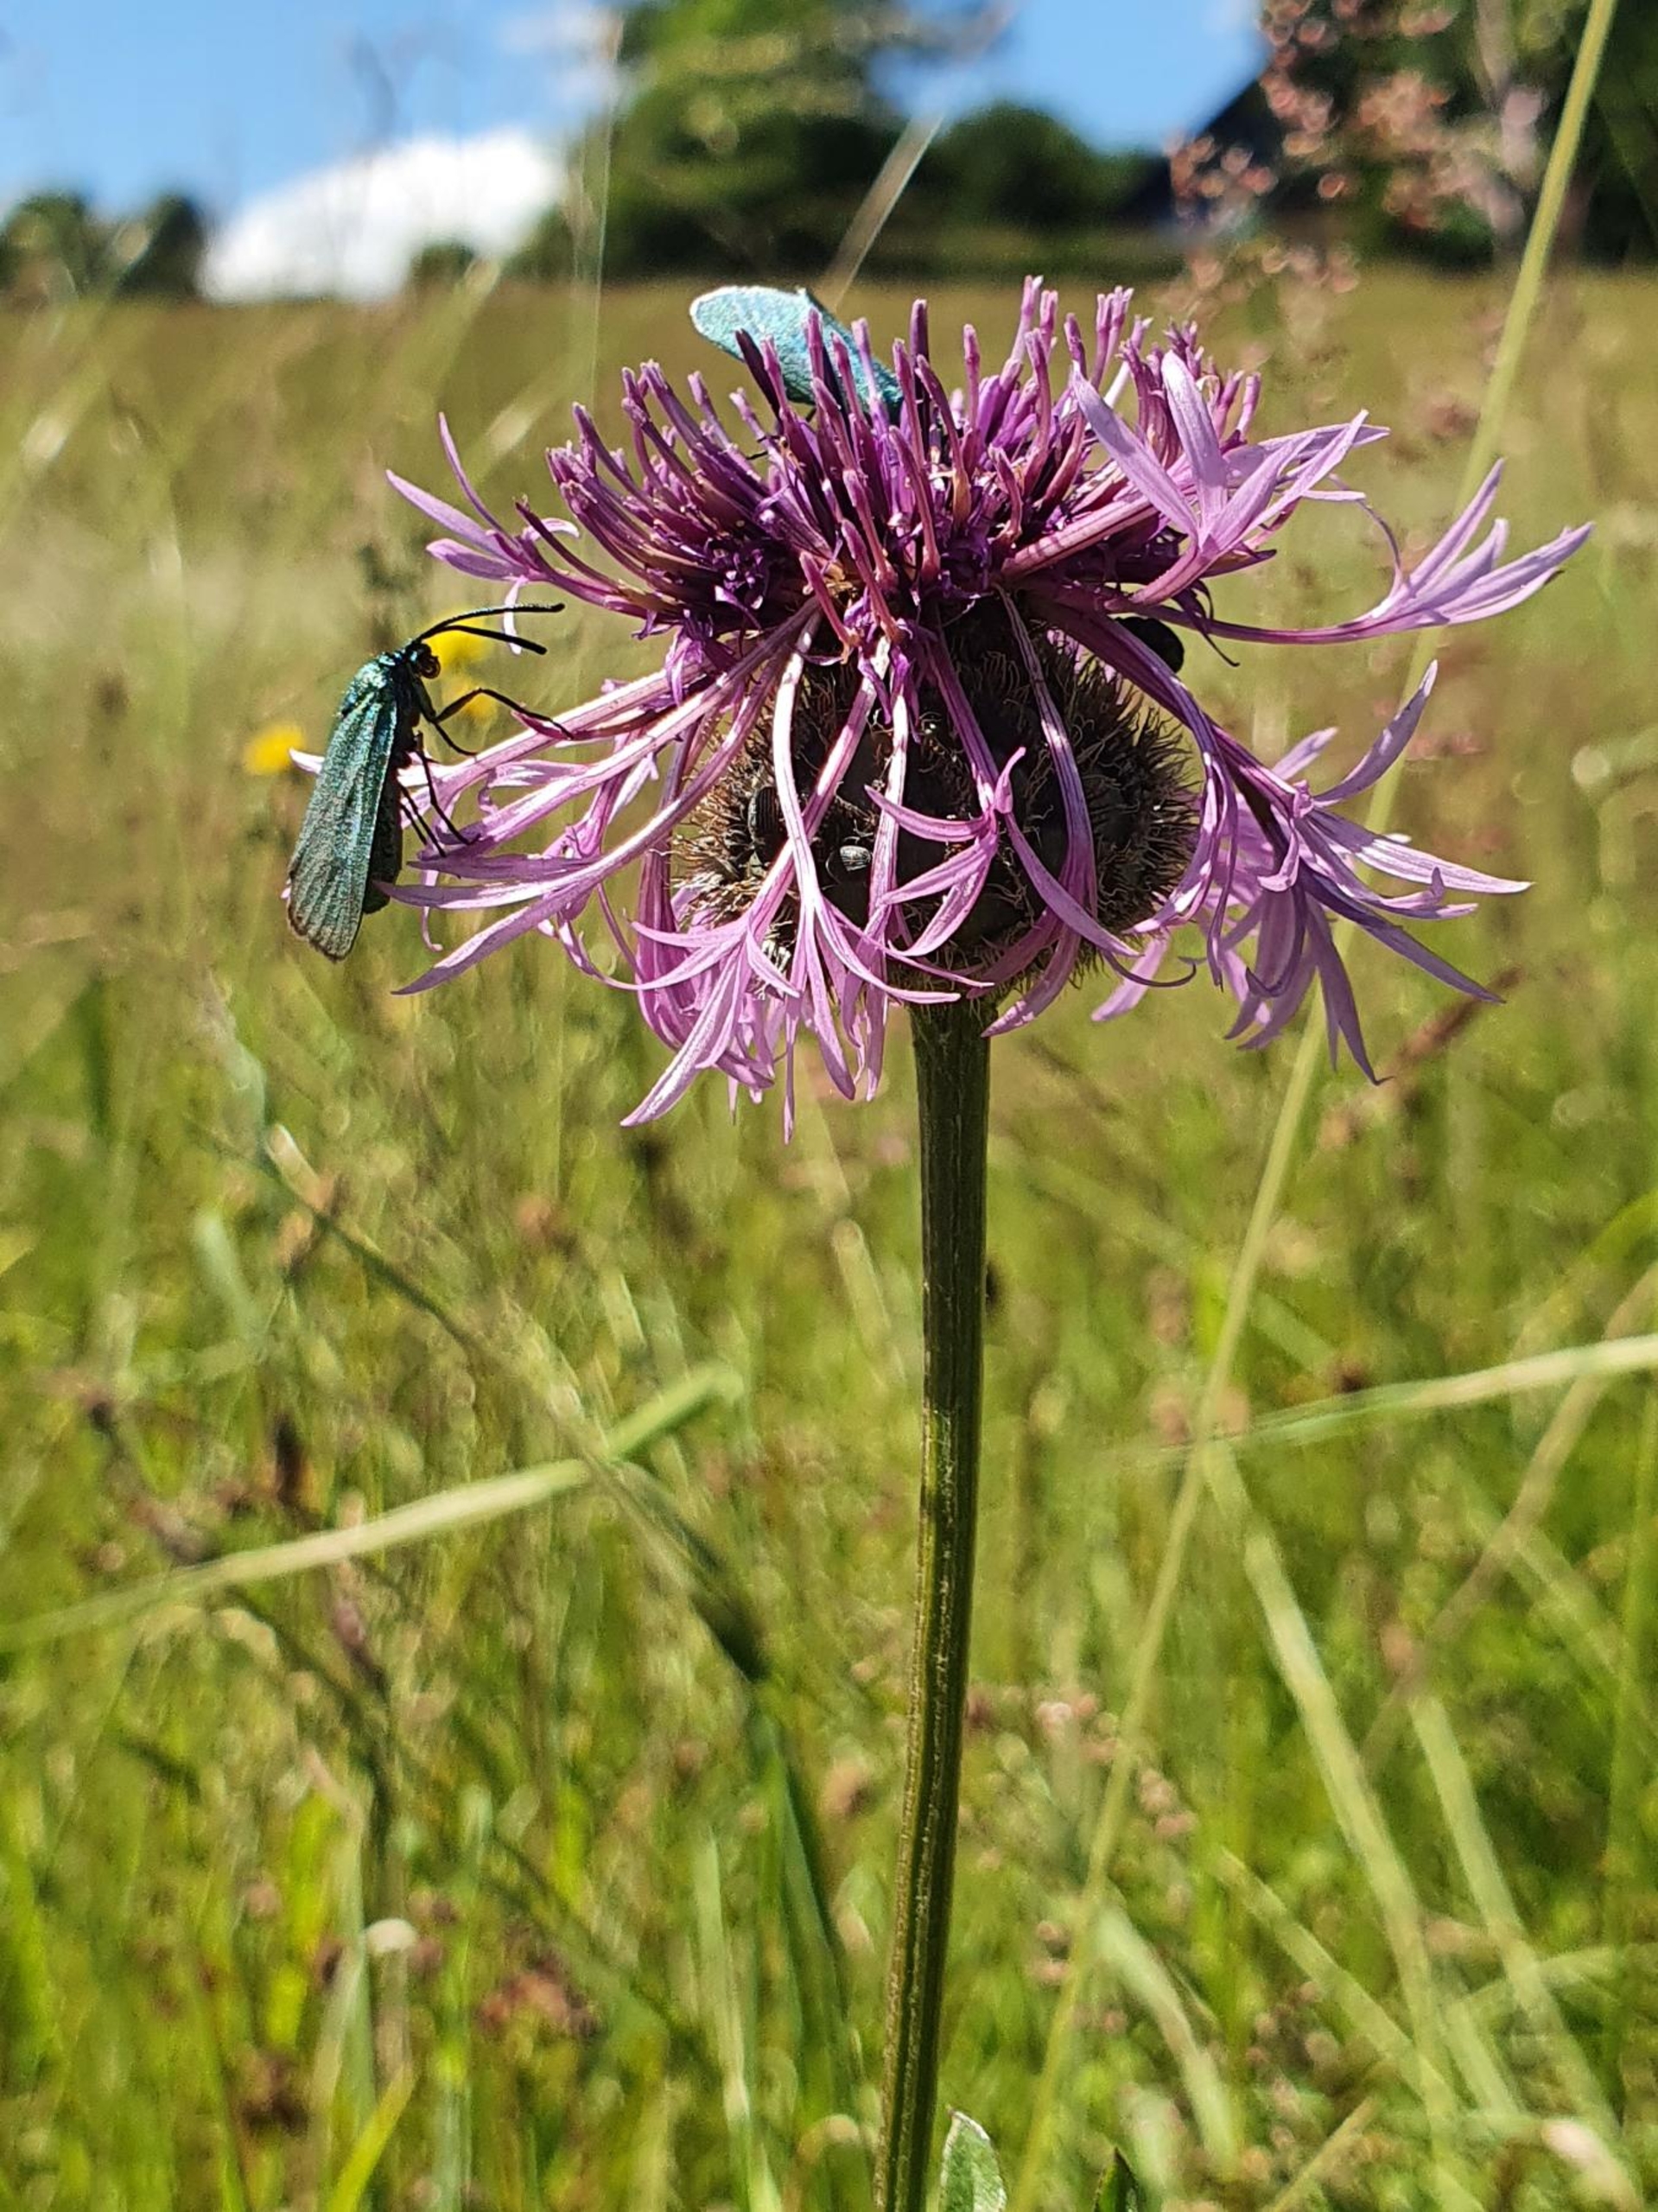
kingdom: Animalia
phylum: Arthropoda
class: Insecta
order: Lepidoptera
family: Zygaenidae
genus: Adscita
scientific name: Adscita statices
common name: Metalvinge
